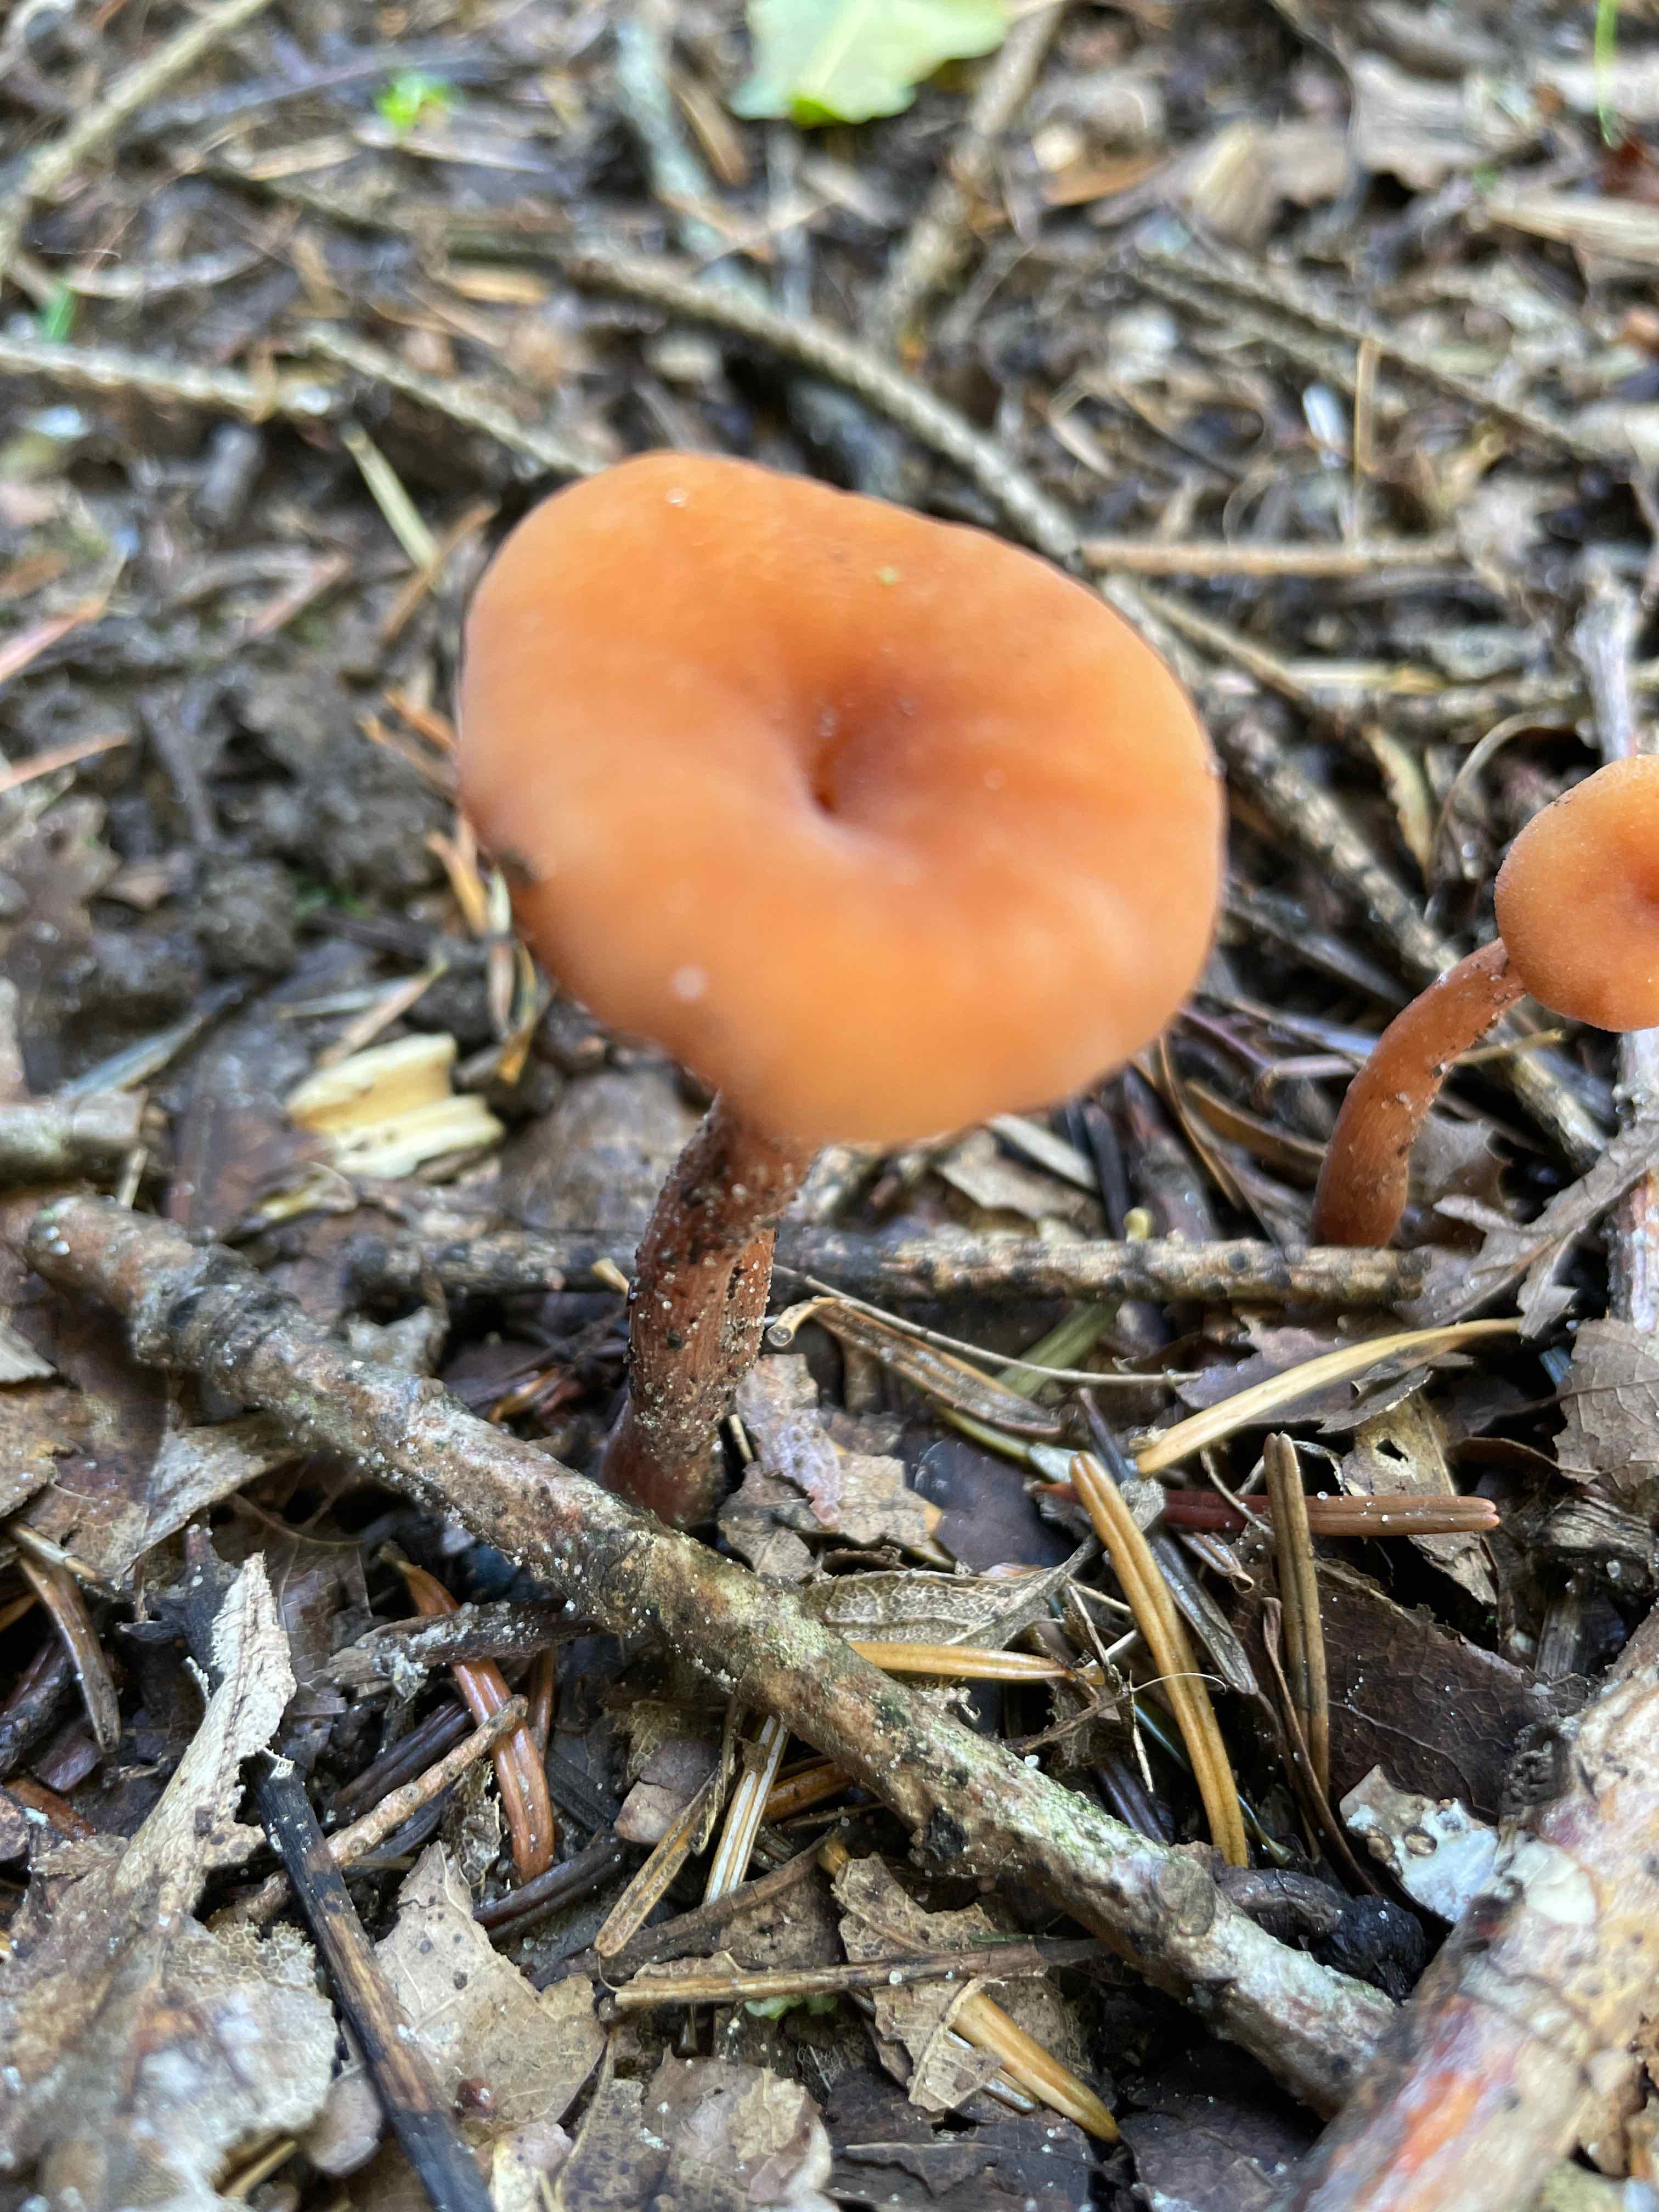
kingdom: Fungi
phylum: Basidiomycota
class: Agaricomycetes
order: Agaricales
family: Hydnangiaceae
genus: Laccaria
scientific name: Laccaria proxima
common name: stor ametysthat
